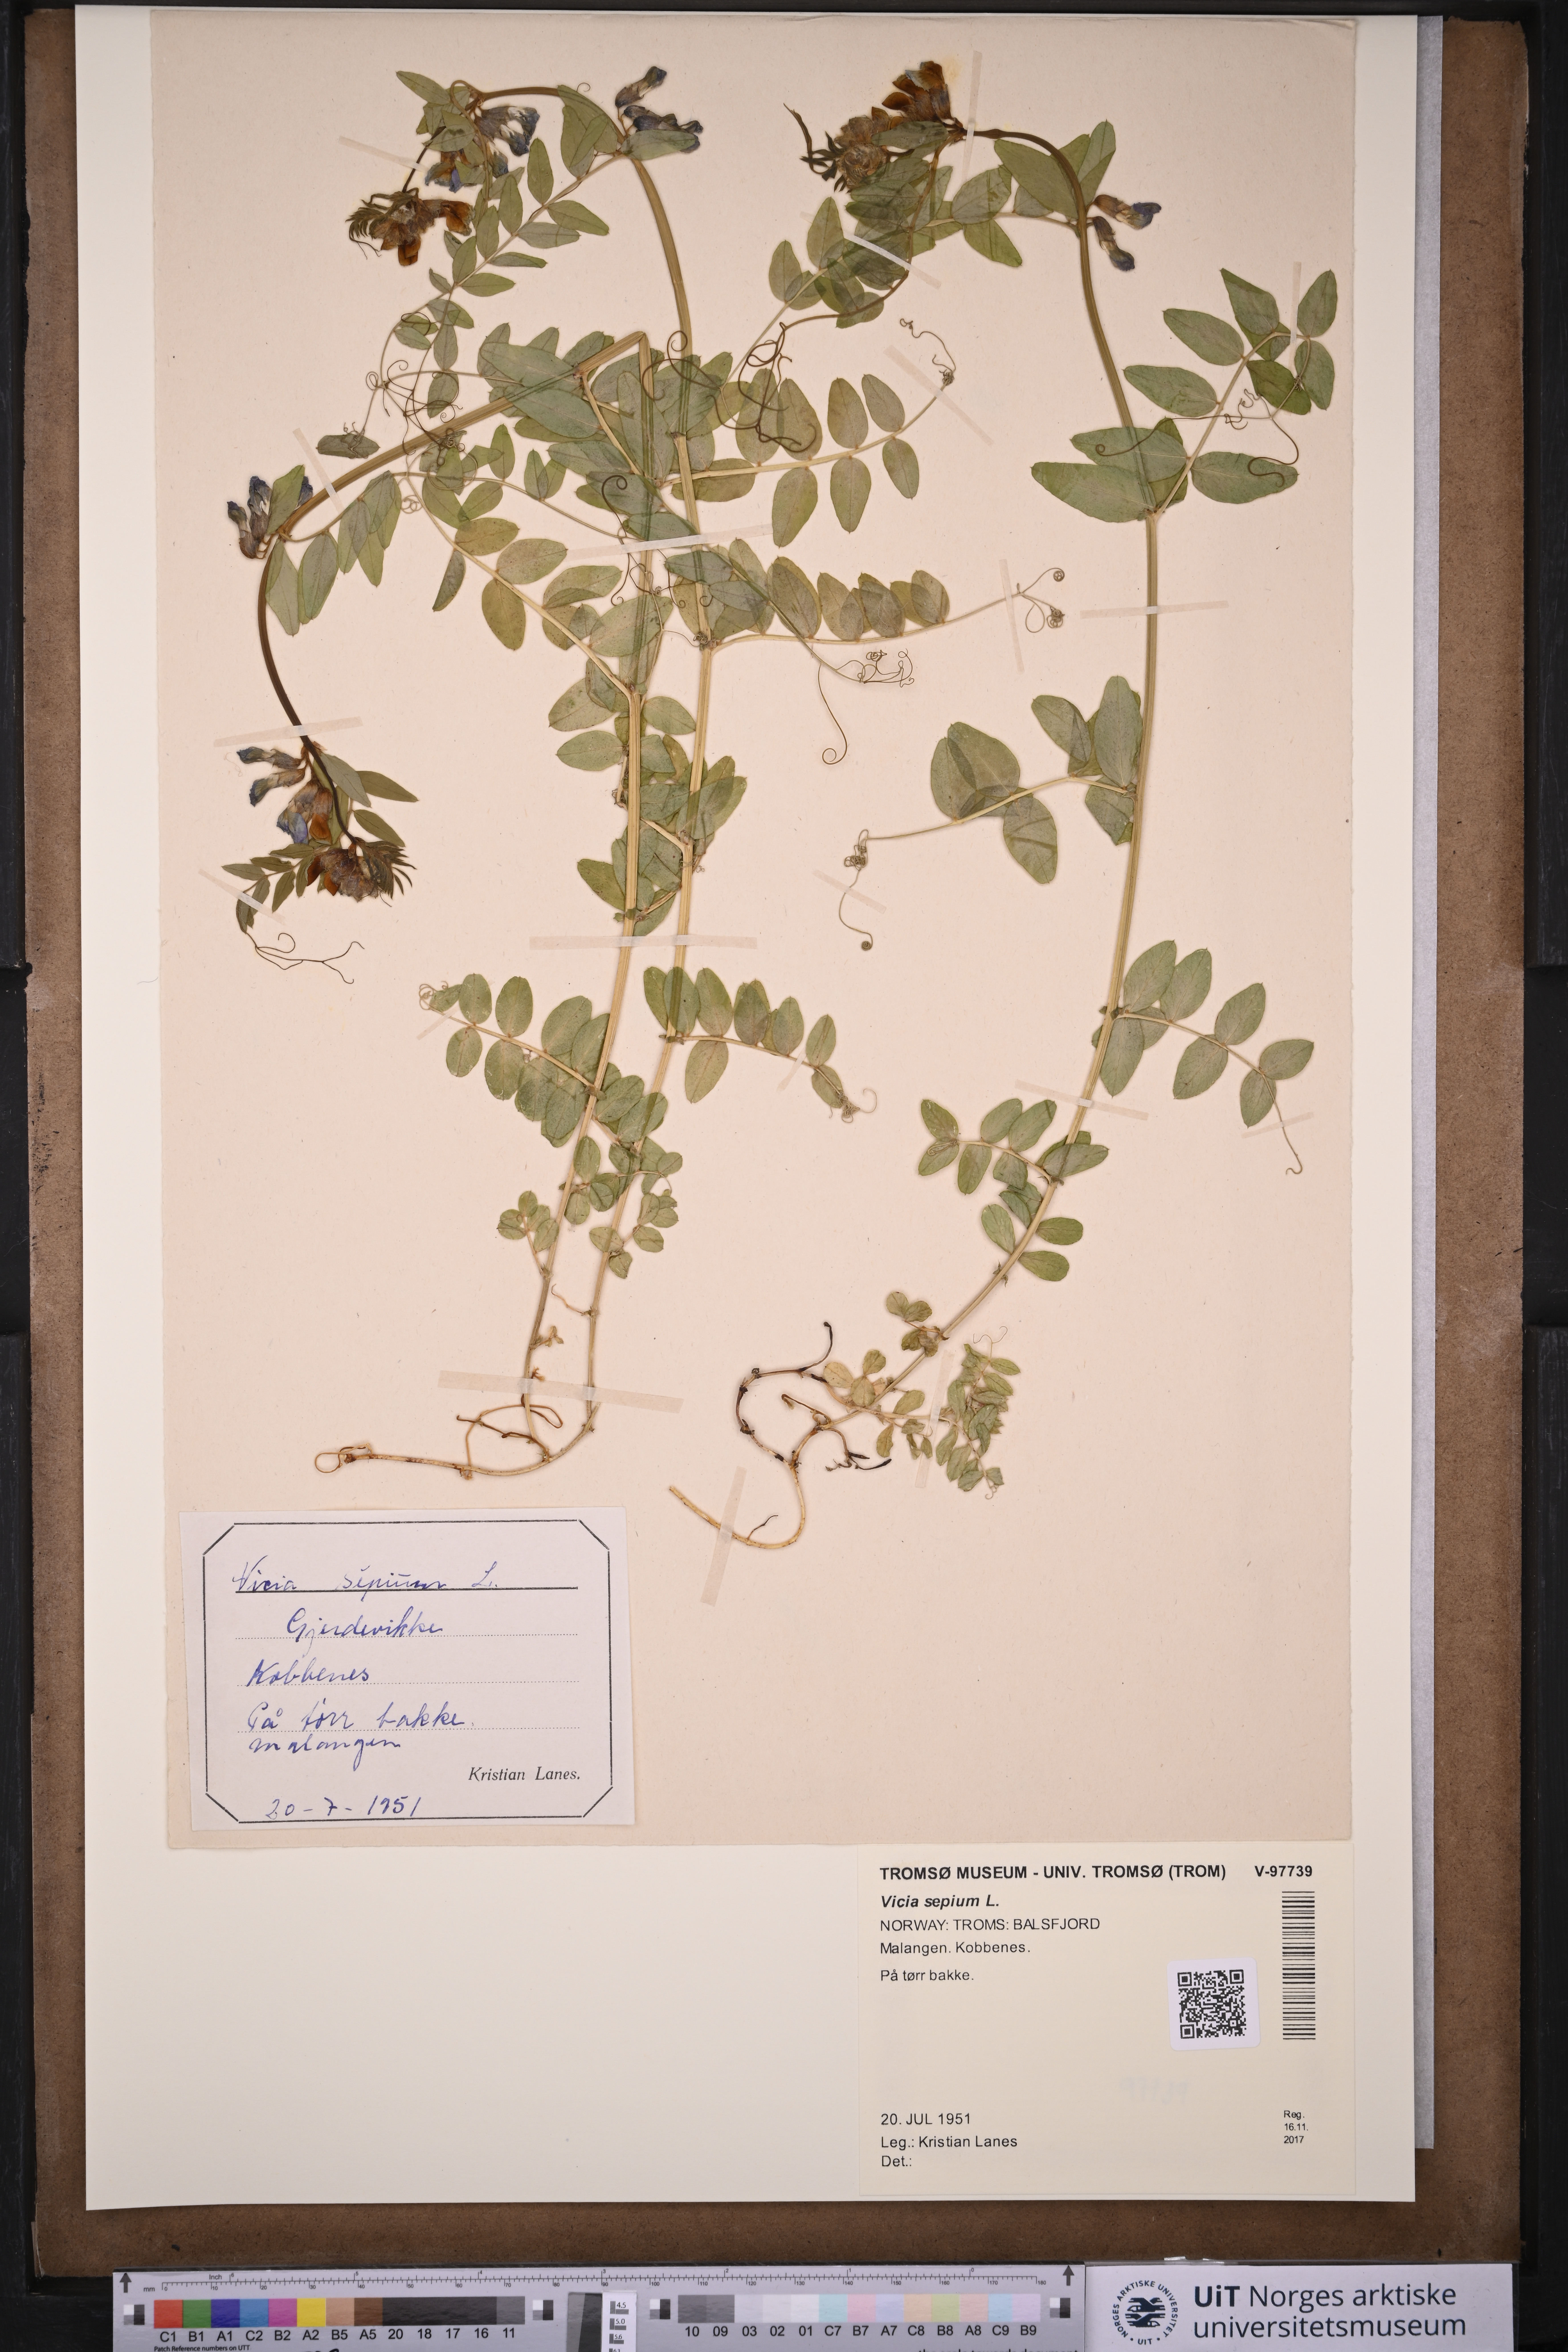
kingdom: Plantae
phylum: Tracheophyta
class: Magnoliopsida
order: Fabales
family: Fabaceae
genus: Vicia
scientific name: Vicia sepium
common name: Bush vetch
